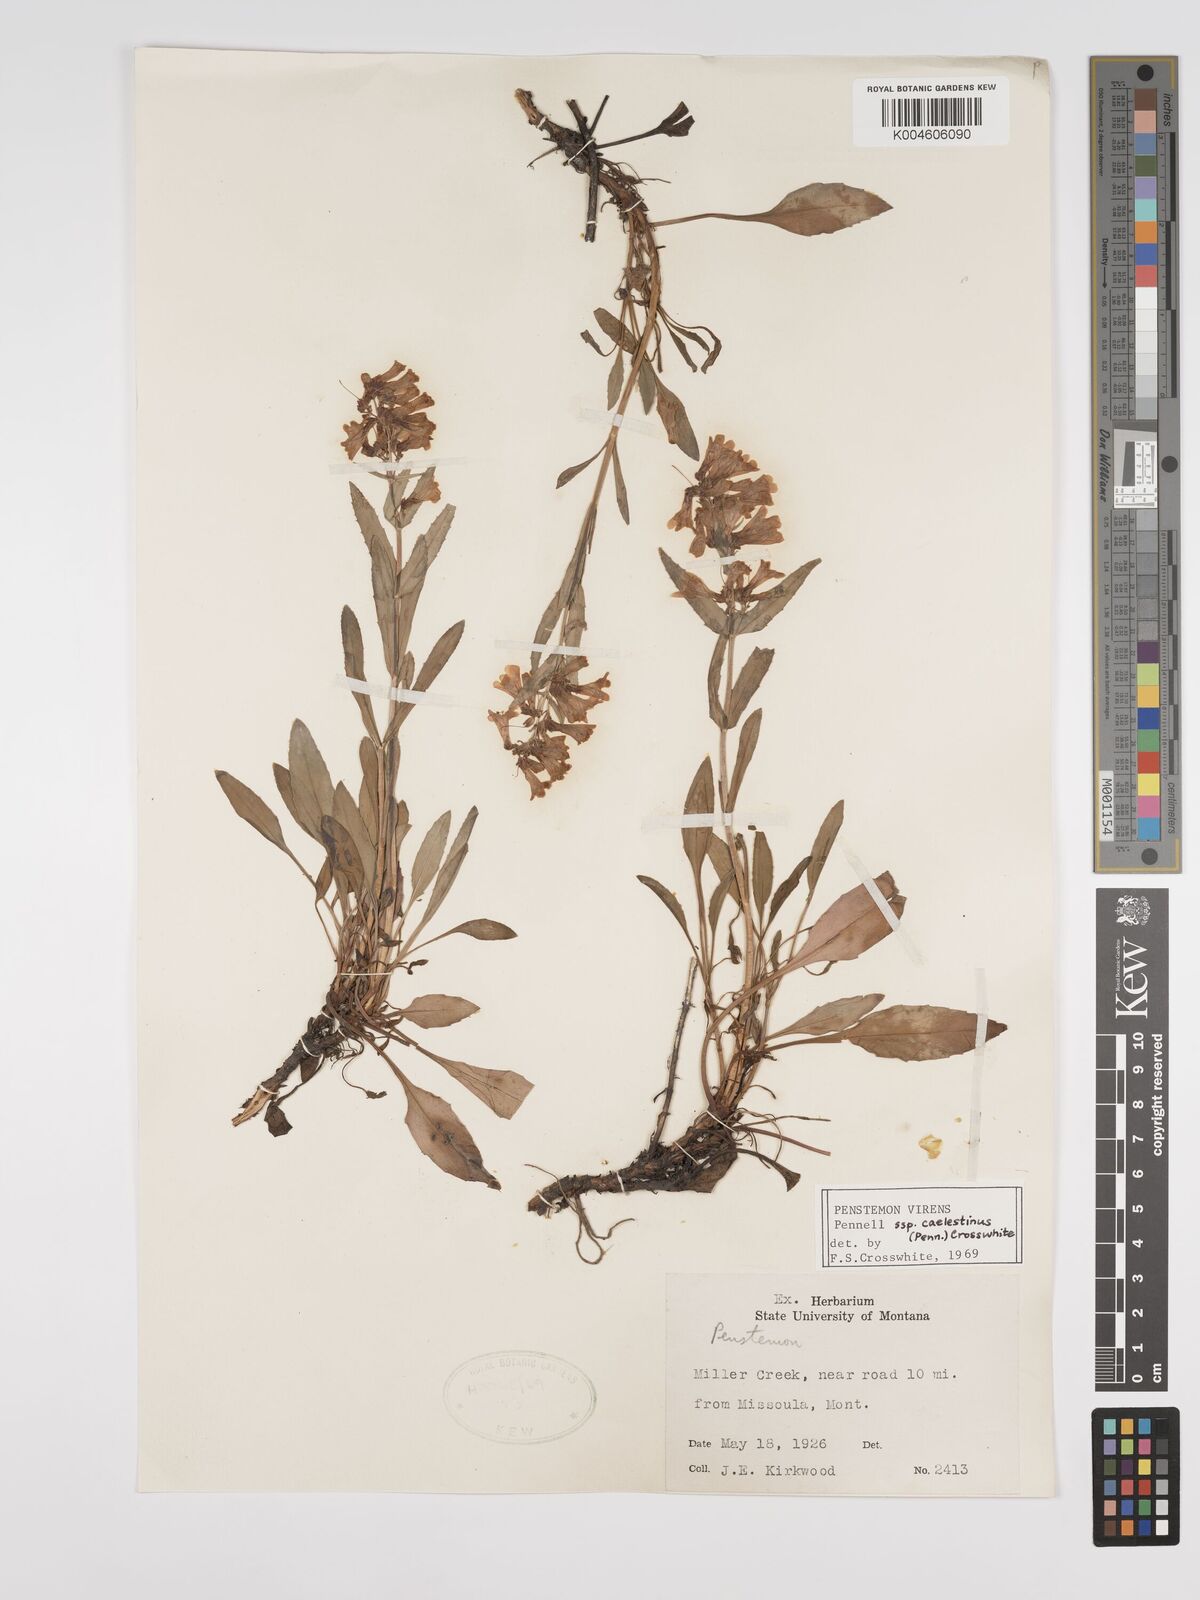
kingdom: Plantae
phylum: Tracheophyta
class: Magnoliopsida
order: Lamiales
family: Plantaginaceae
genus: Penstemon
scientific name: Penstemon virens
